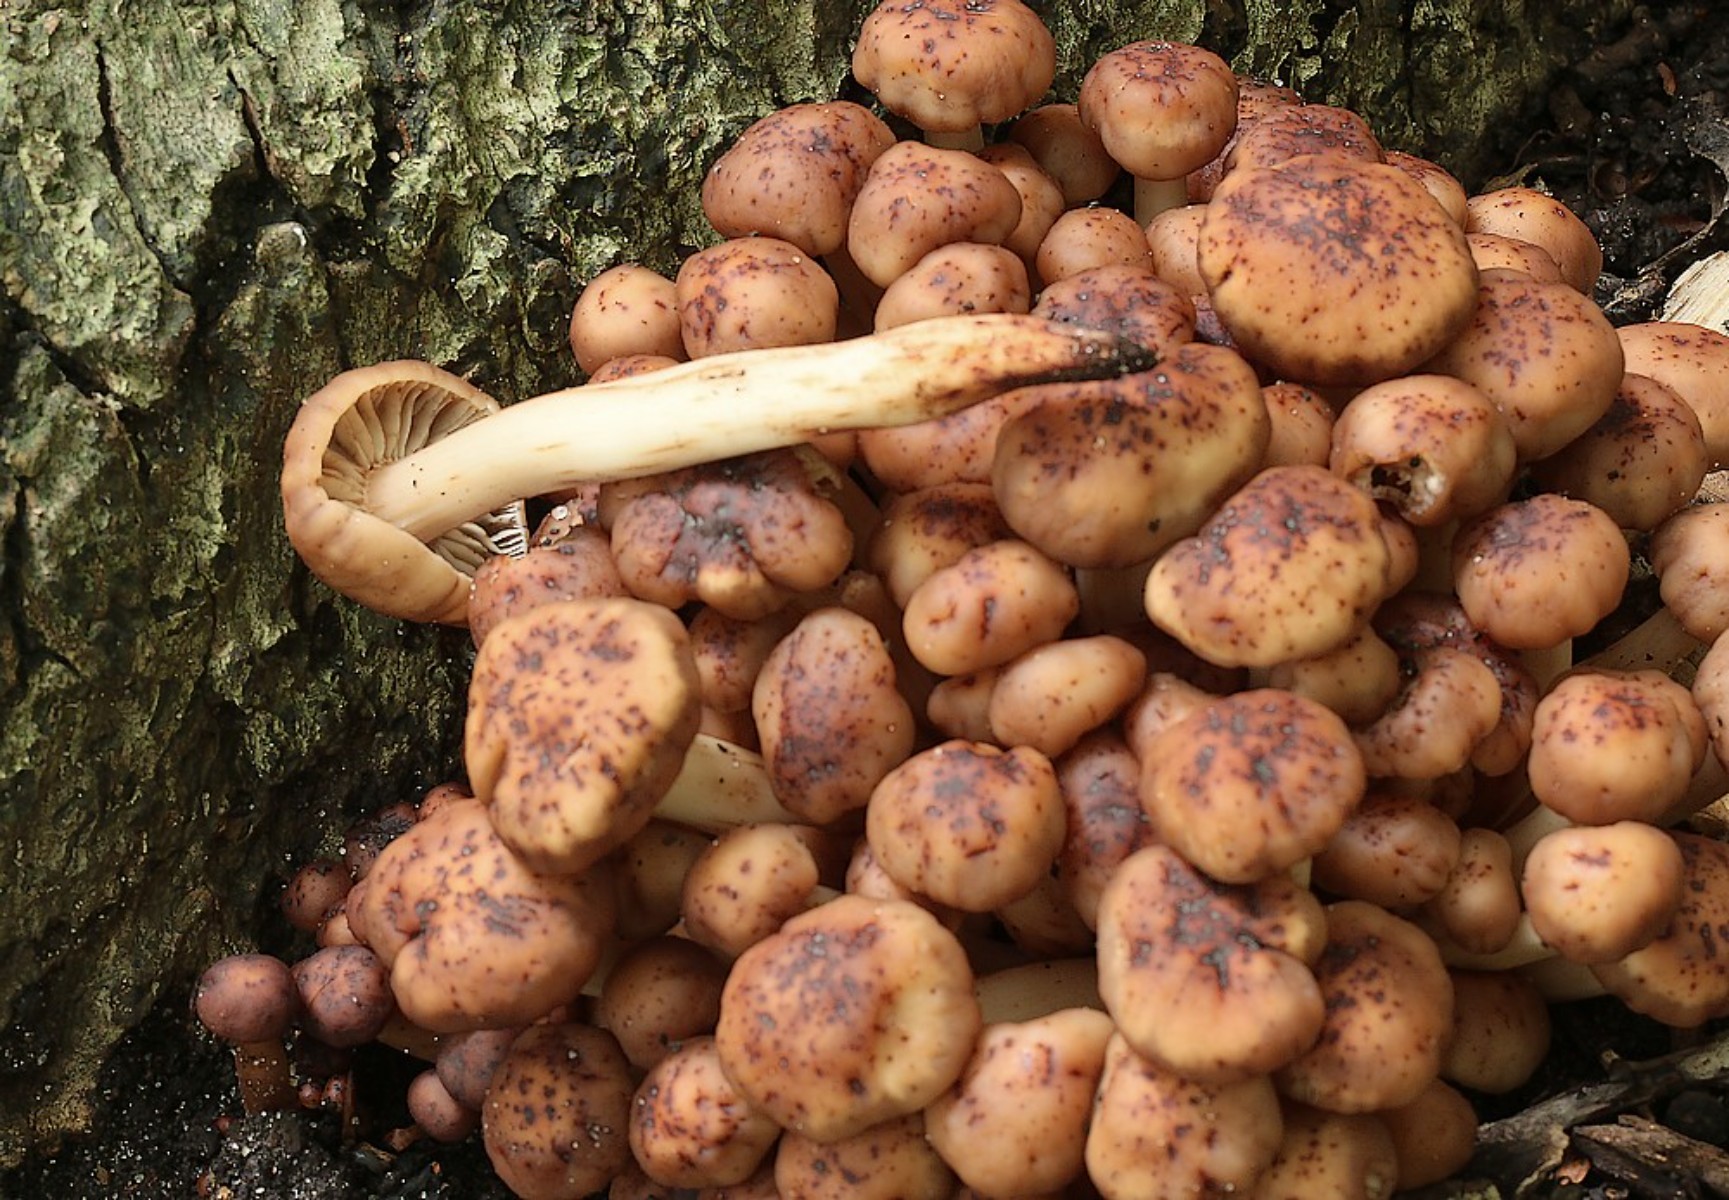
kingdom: Fungi
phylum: Basidiomycota
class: Agaricomycetes
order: Agaricales
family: Omphalotaceae
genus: Gymnopus
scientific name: Gymnopus fusipes
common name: tenstokket fladhat
